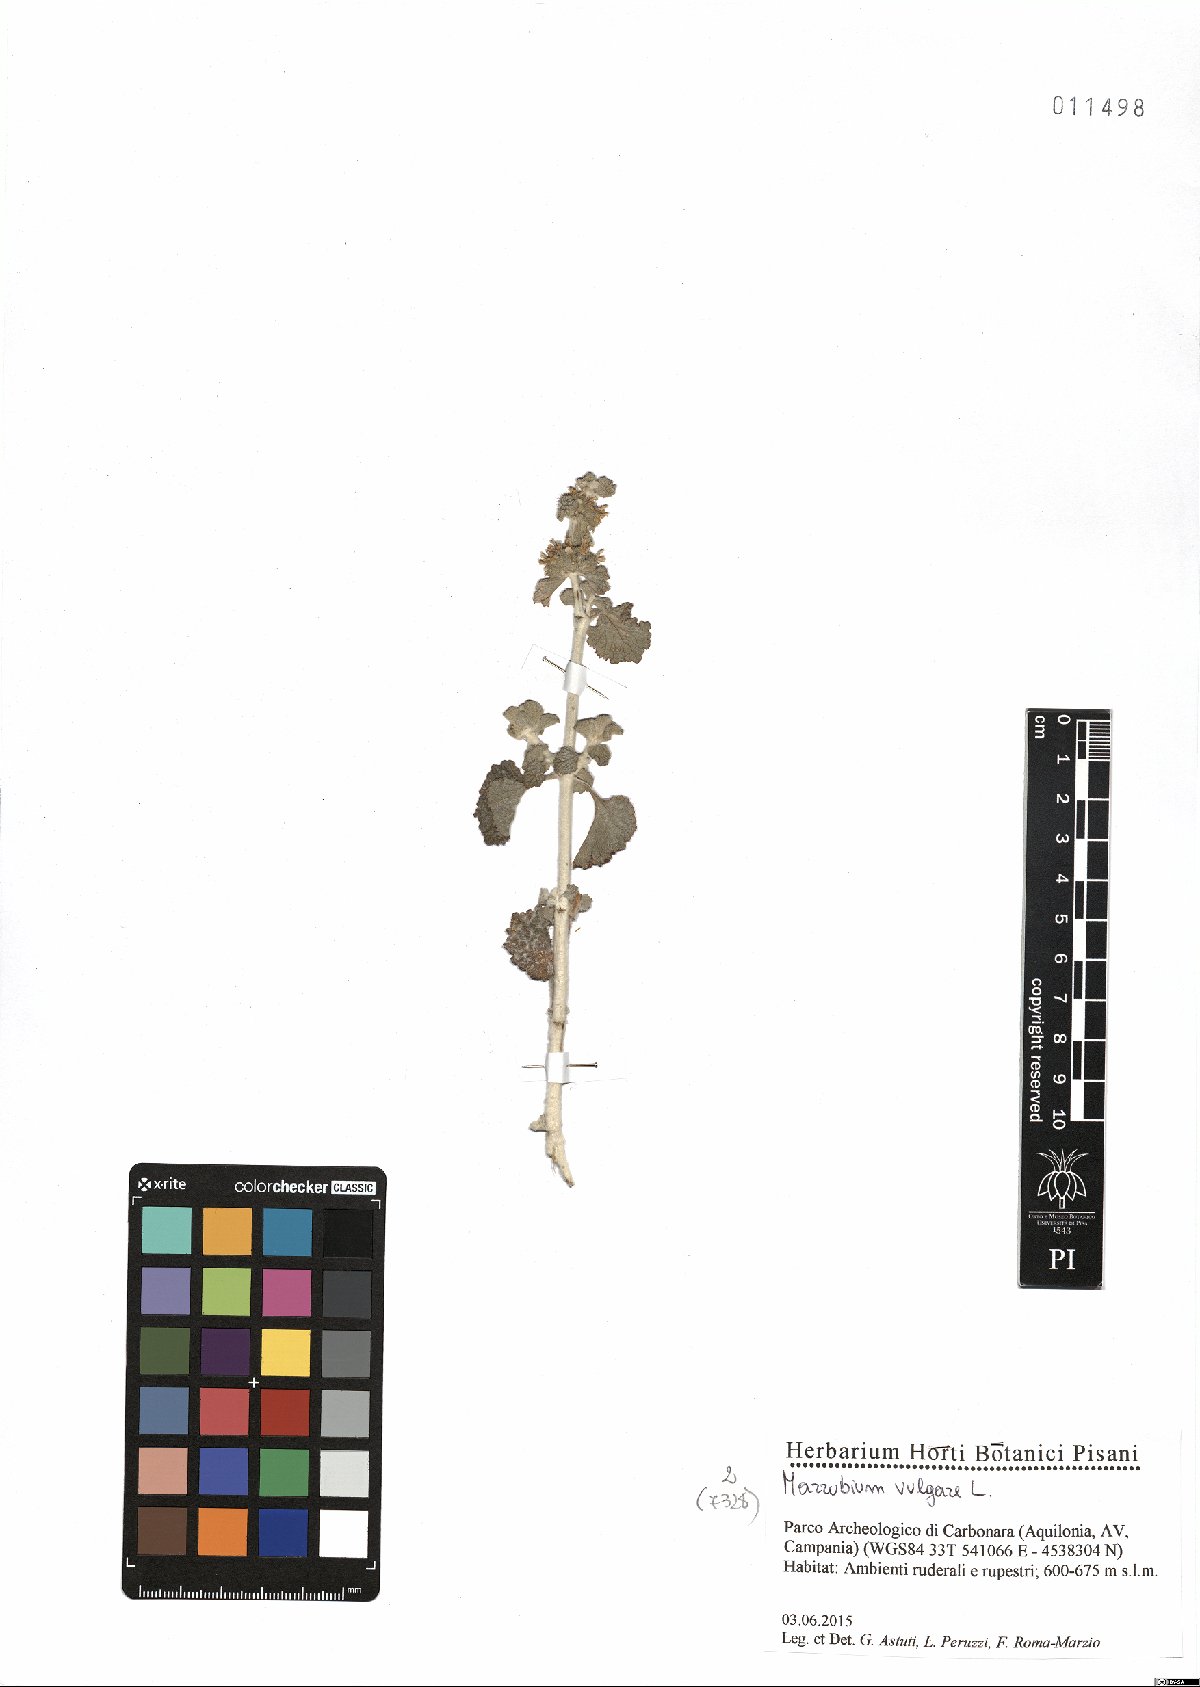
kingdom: Plantae
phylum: Tracheophyta
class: Magnoliopsida
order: Lamiales
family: Lamiaceae
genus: Marrubium
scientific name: Marrubium vulgare
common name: Horehound
